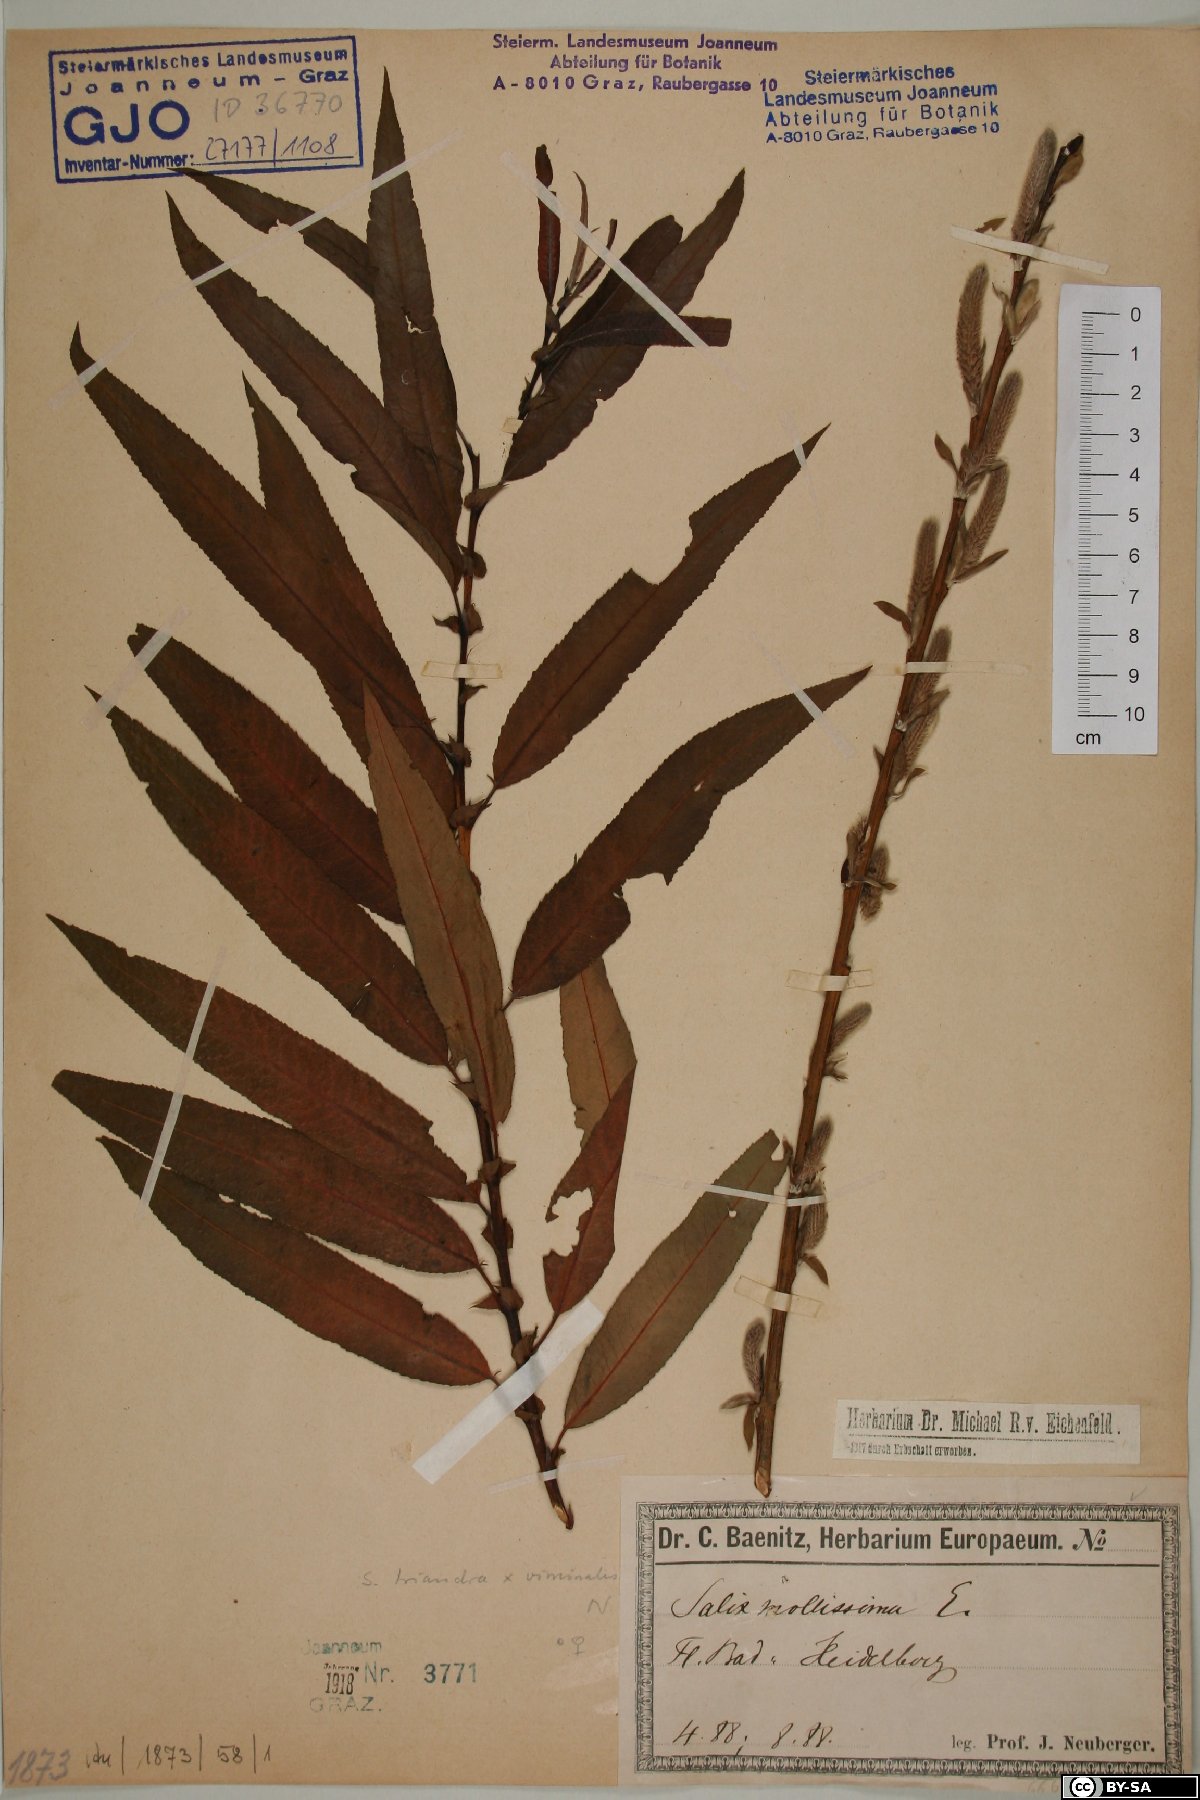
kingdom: Plantae
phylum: Tracheophyta
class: Magnoliopsida
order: Malpighiales
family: Salicaceae
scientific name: Salicaceae
